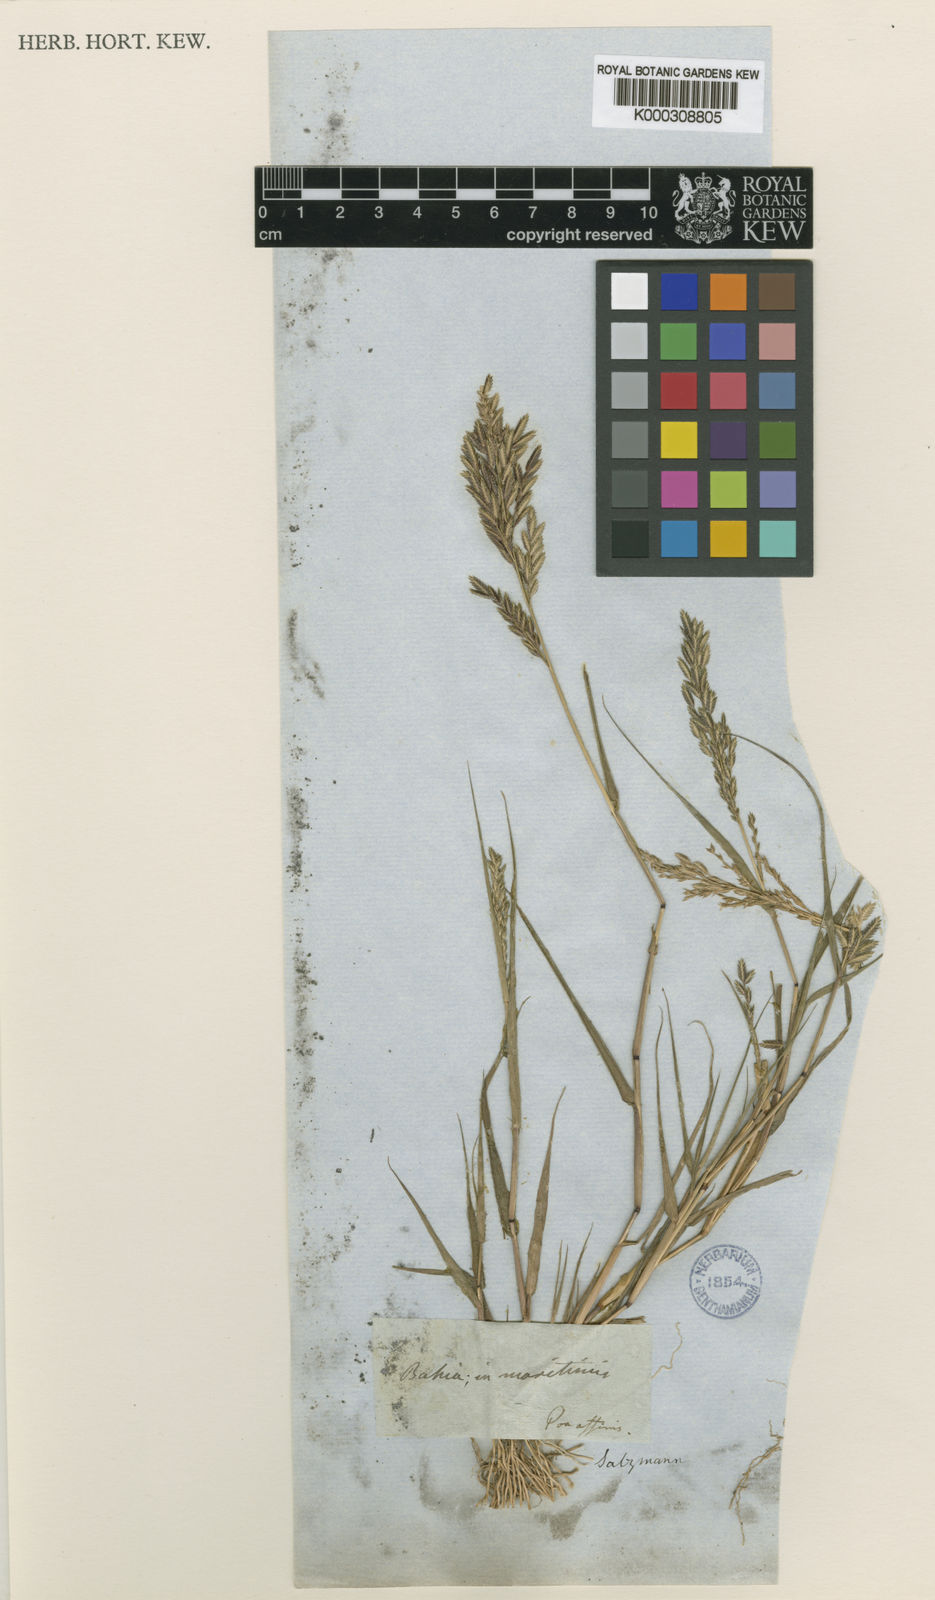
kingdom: Plantae
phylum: Tracheophyta
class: Liliopsida
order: Poales
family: Poaceae
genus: Eragrostis
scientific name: Eragrostis rufescens
